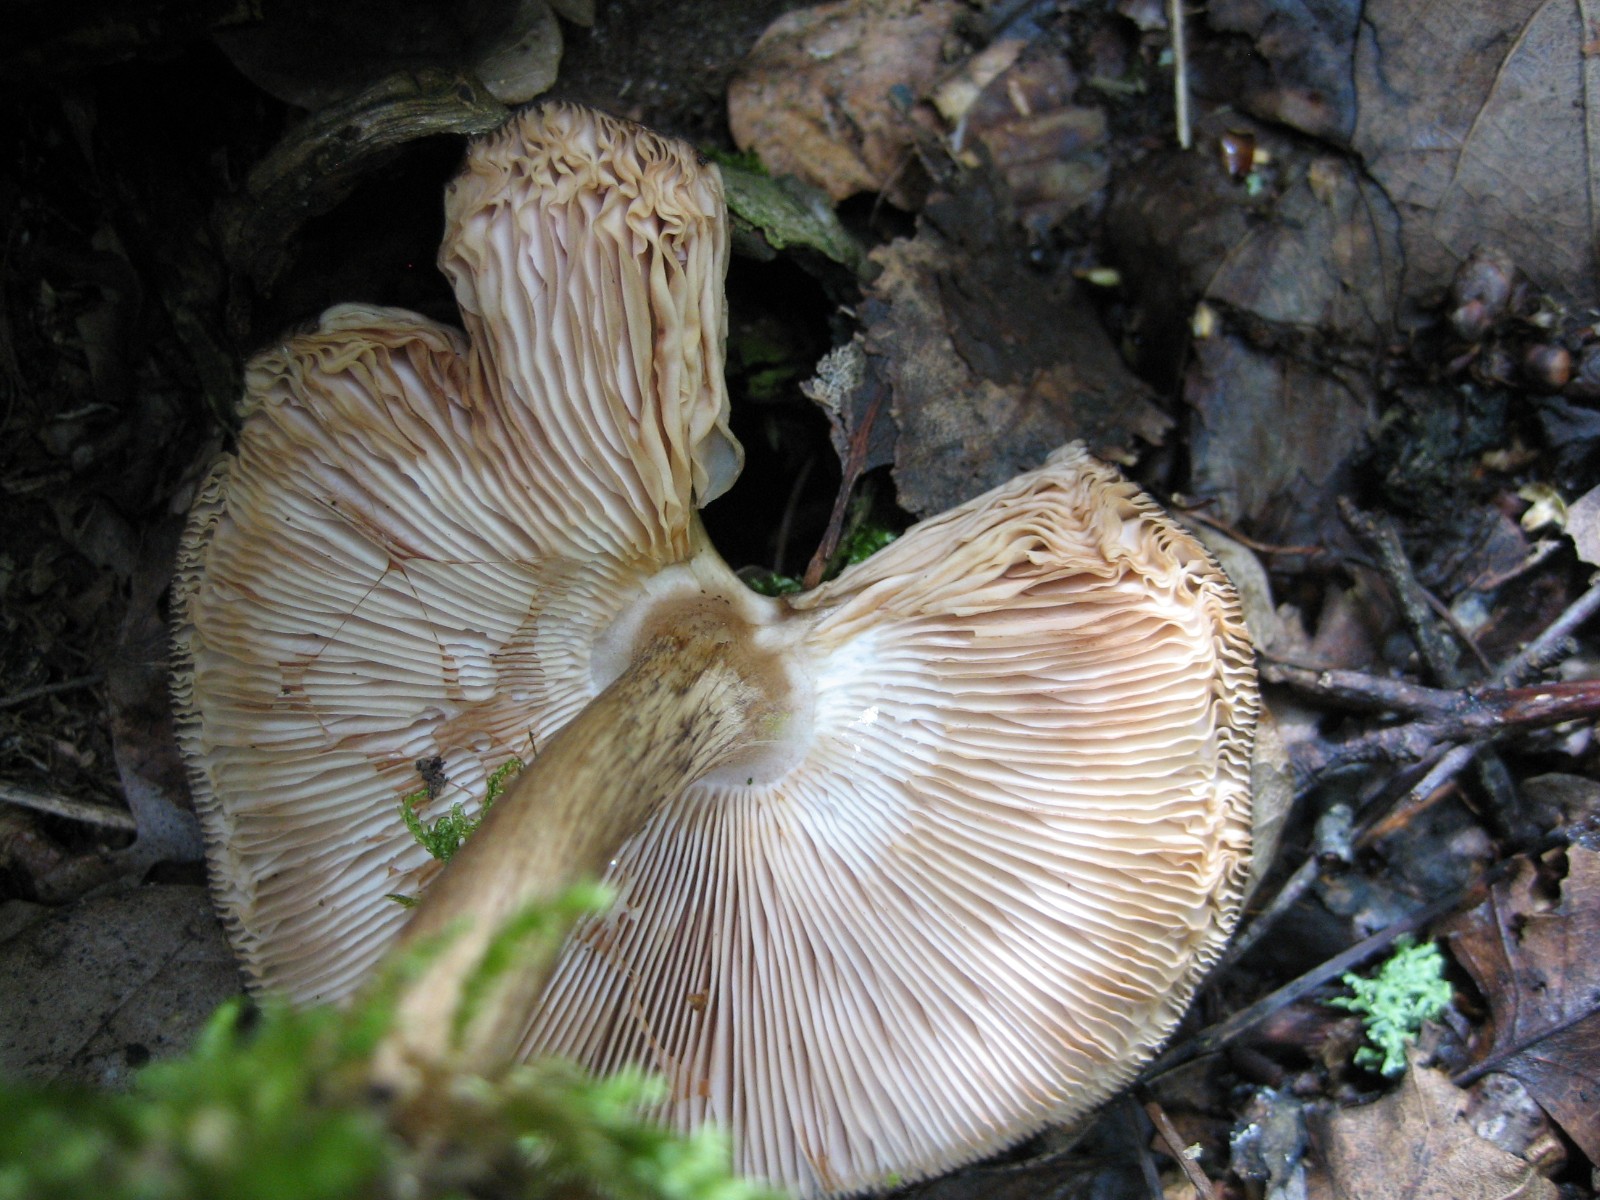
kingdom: Fungi
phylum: Basidiomycota
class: Agaricomycetes
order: Agaricales
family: Pluteaceae
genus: Pluteus
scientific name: Pluteus cervinus
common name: sodfarvet skærmhat
